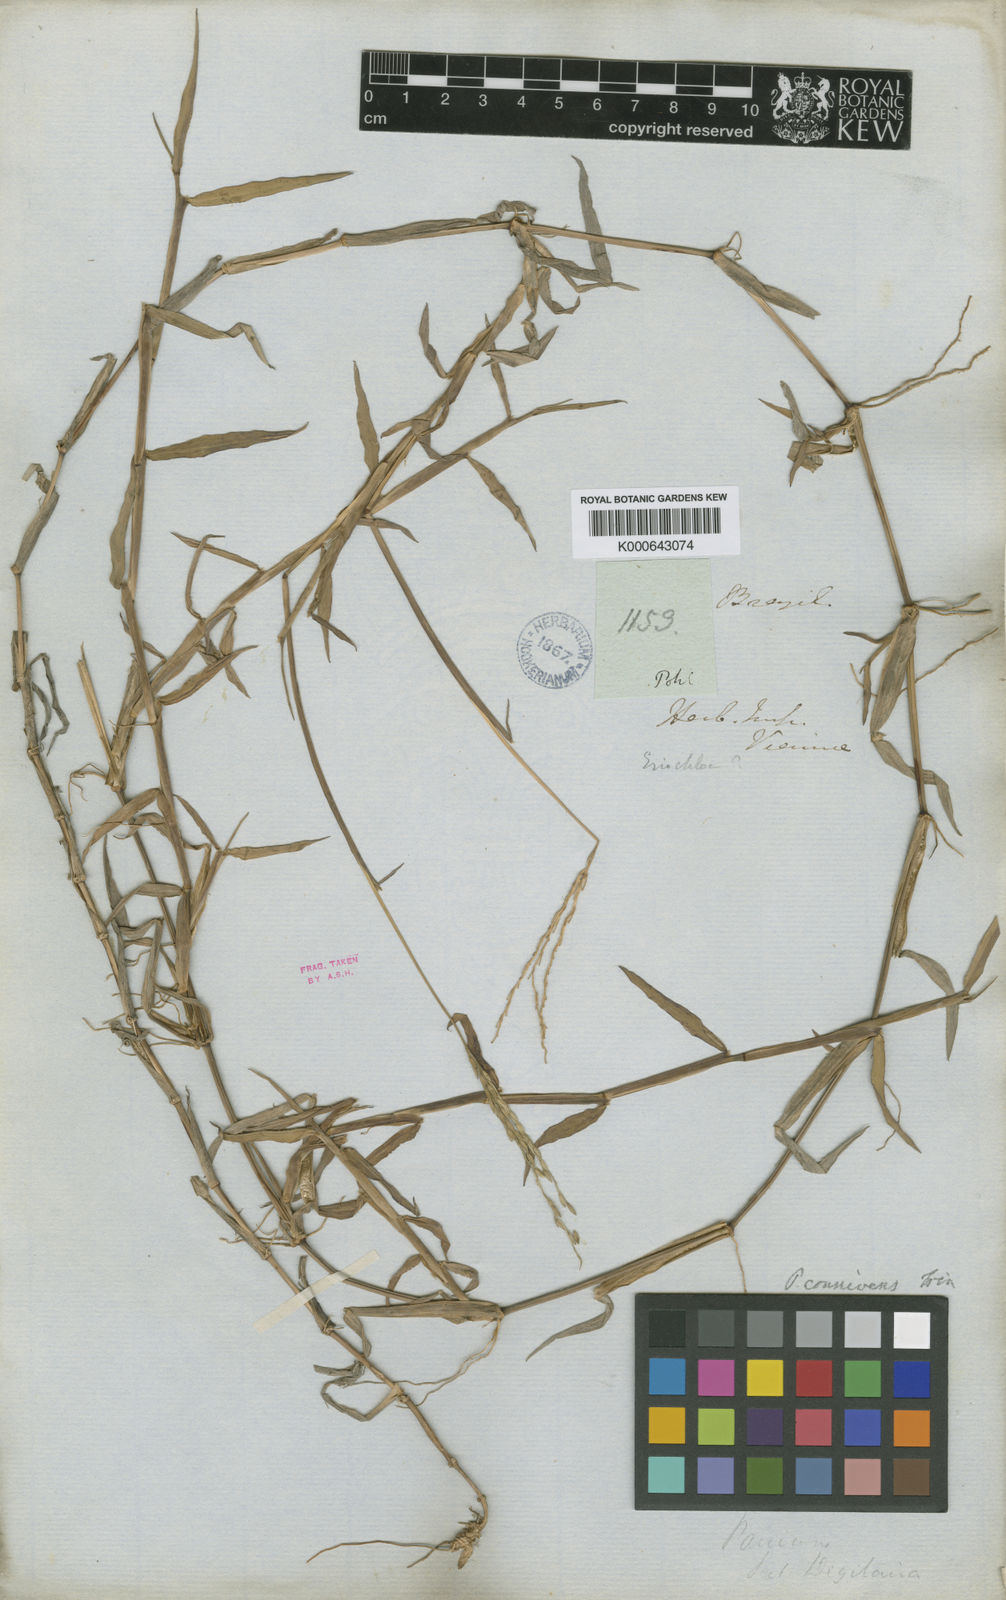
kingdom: Plantae
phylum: Tracheophyta
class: Liliopsida
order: Poales
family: Poaceae
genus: Digitaria
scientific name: Digitaria connivens
